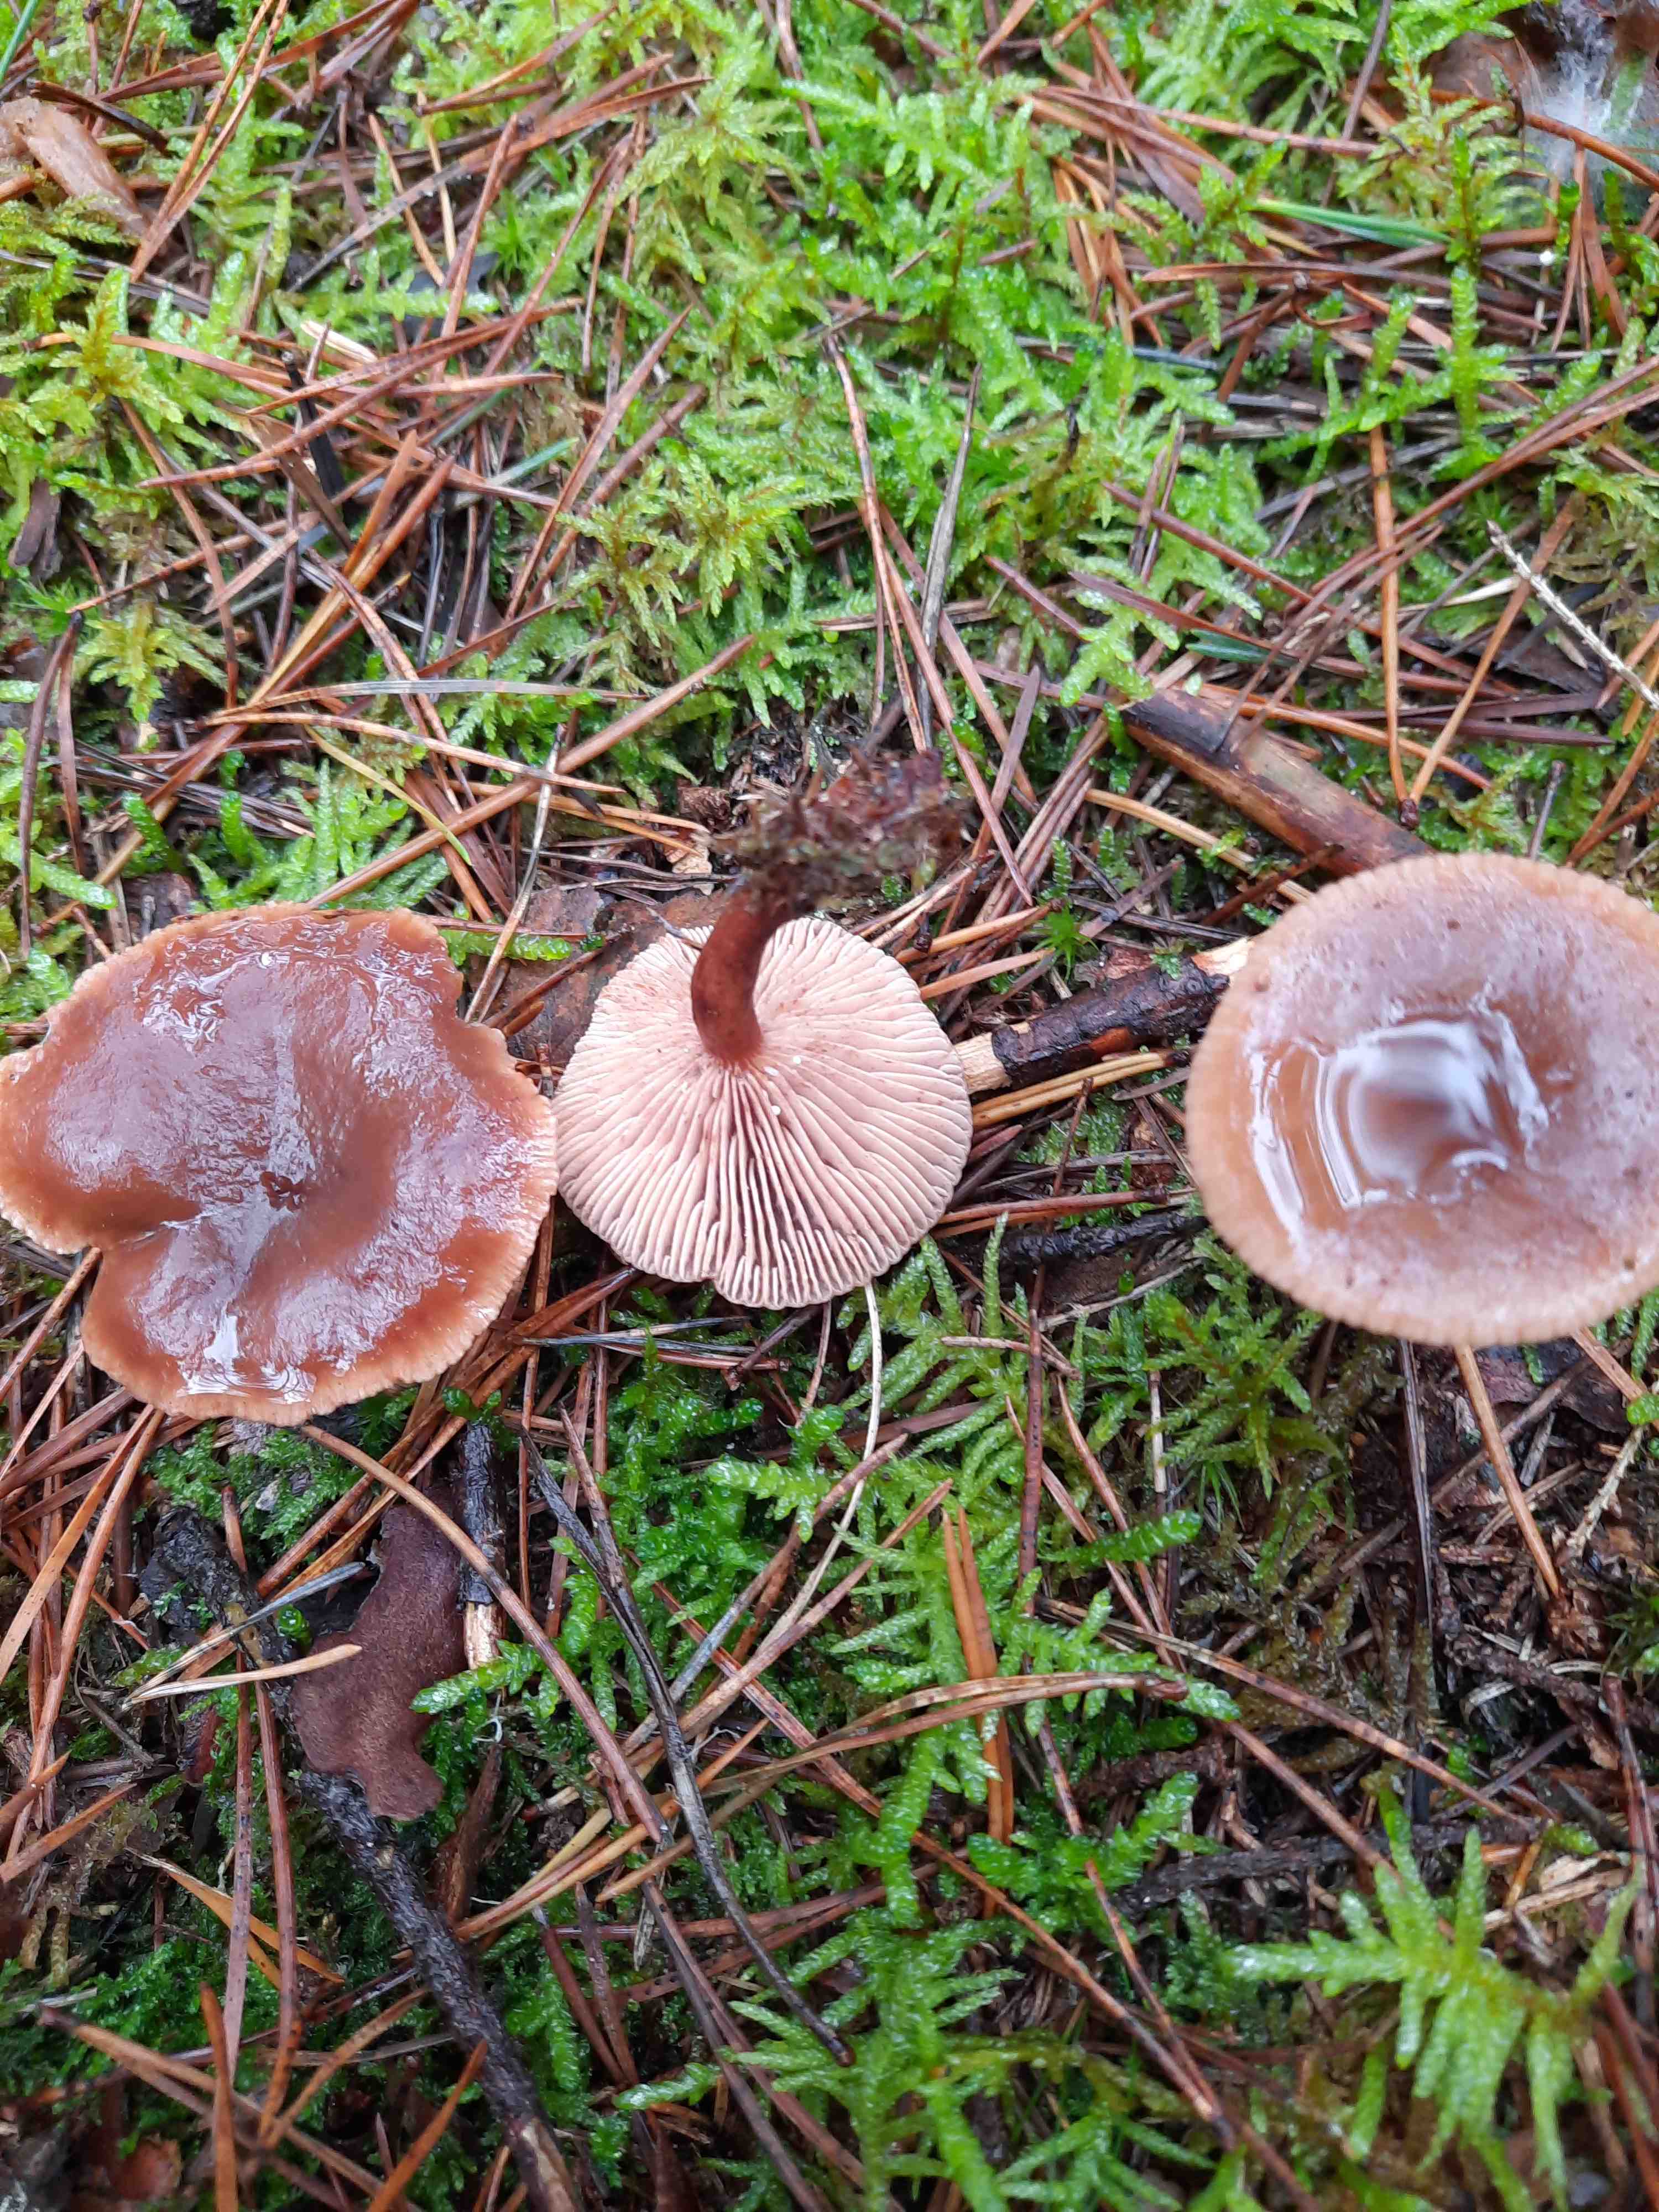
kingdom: Fungi
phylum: Basidiomycota
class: Agaricomycetes
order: Russulales
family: Russulaceae
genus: Lactarius
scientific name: Lactarius hepaticus
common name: leverbrun mælkehat
